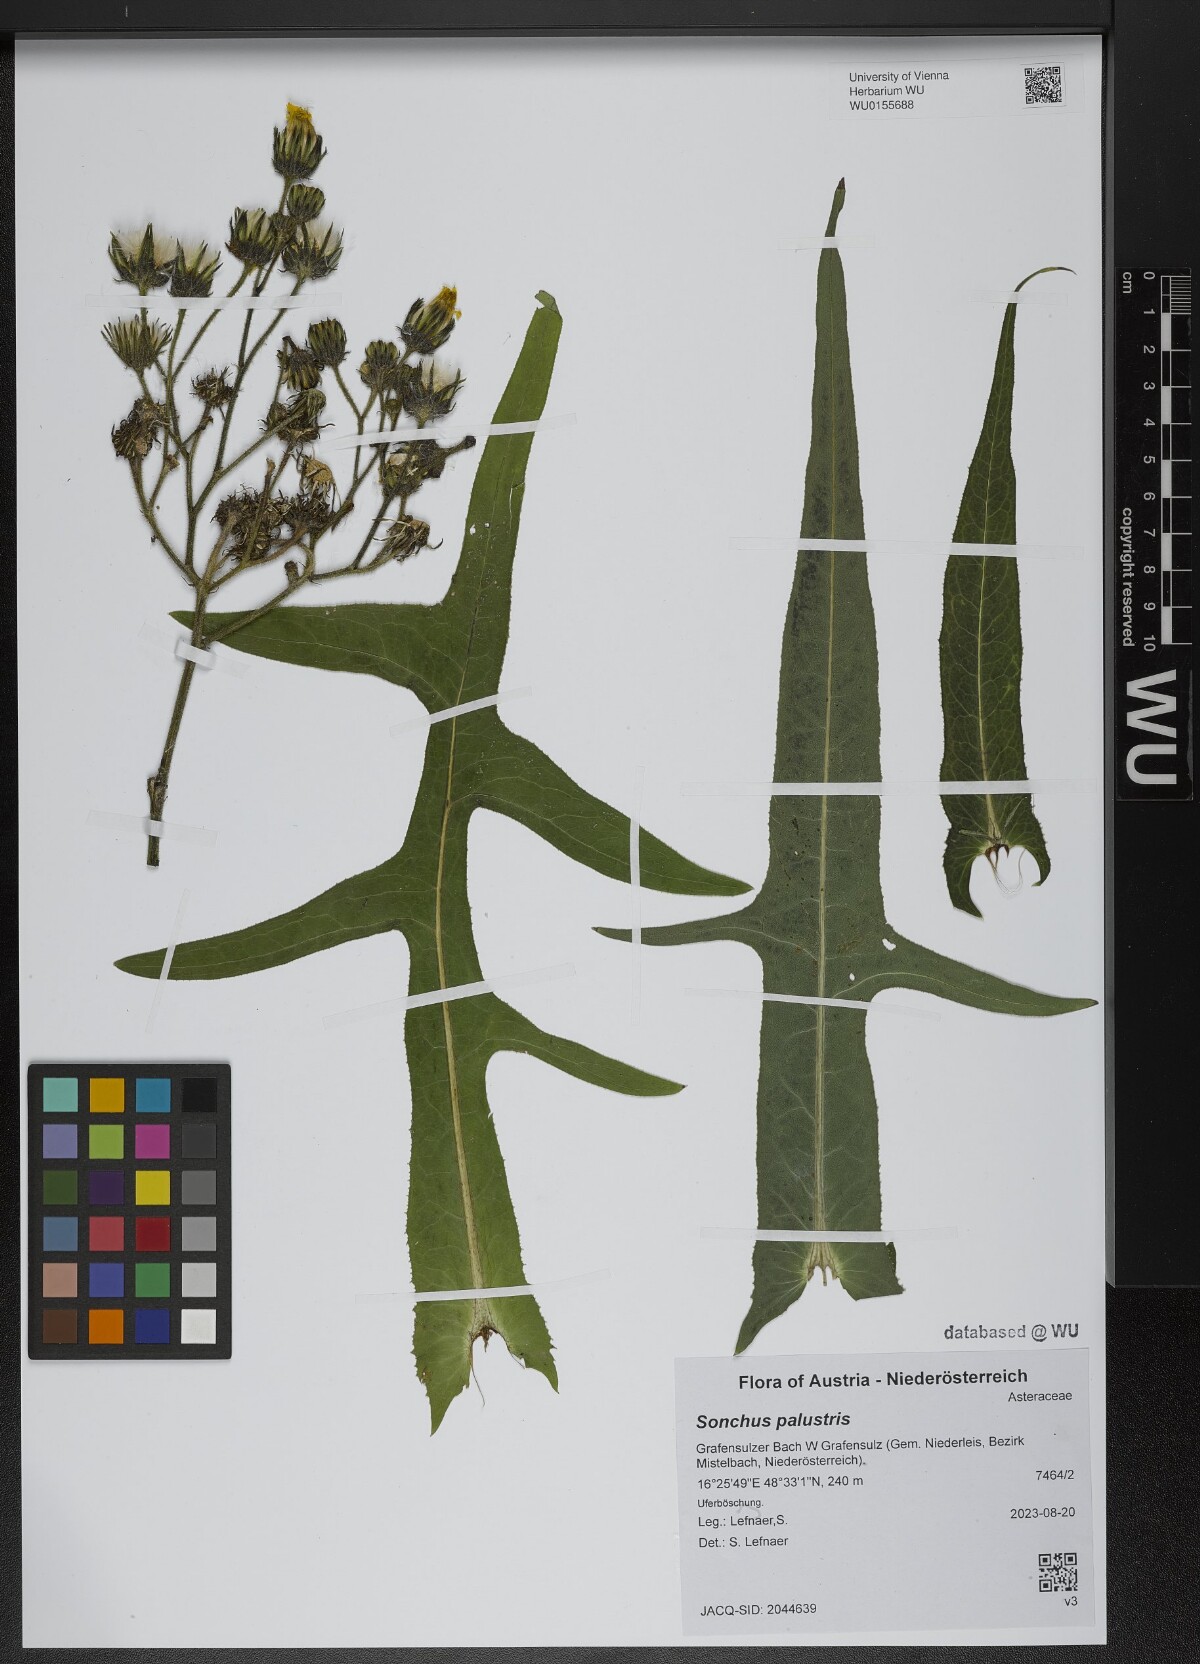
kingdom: Plantae
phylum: Tracheophyta
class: Magnoliopsida
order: Asterales
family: Asteraceae
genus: Sonchus
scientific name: Sonchus palustris
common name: Marsh sow-thistle
